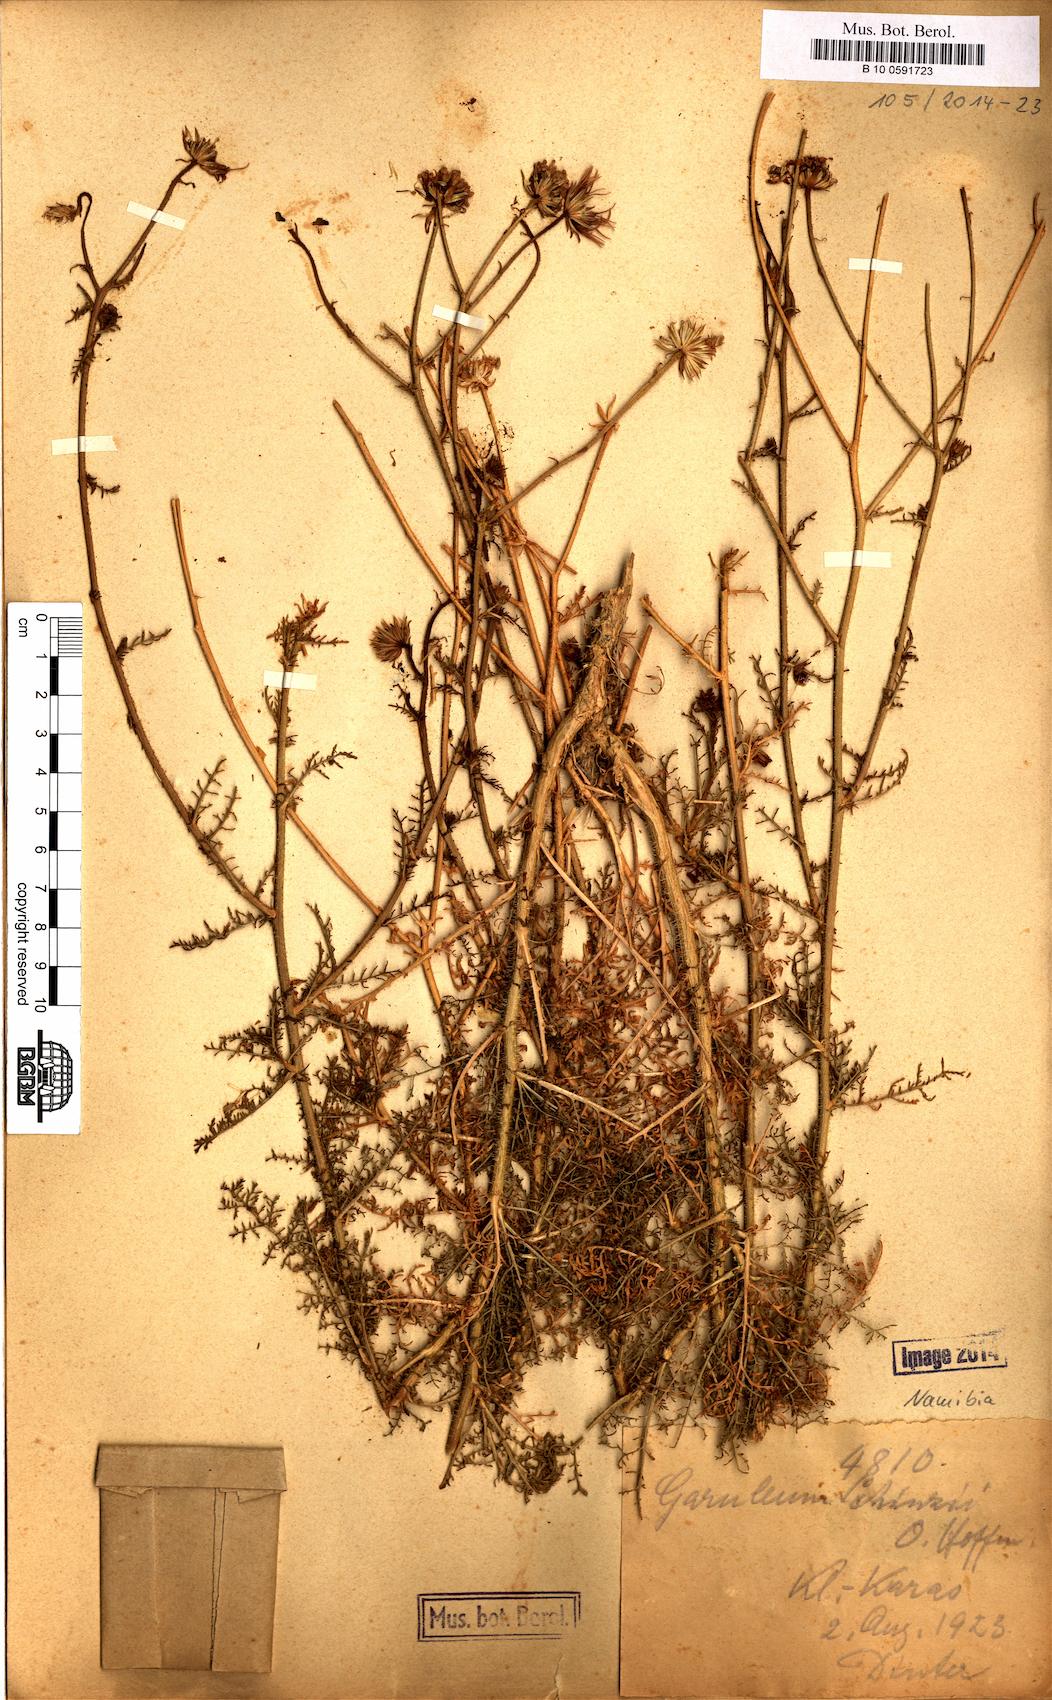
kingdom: Plantae
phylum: Tracheophyta
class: Magnoliopsida
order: Asterales
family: Asteraceae
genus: Garuleum
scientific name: Garuleum schinzii
